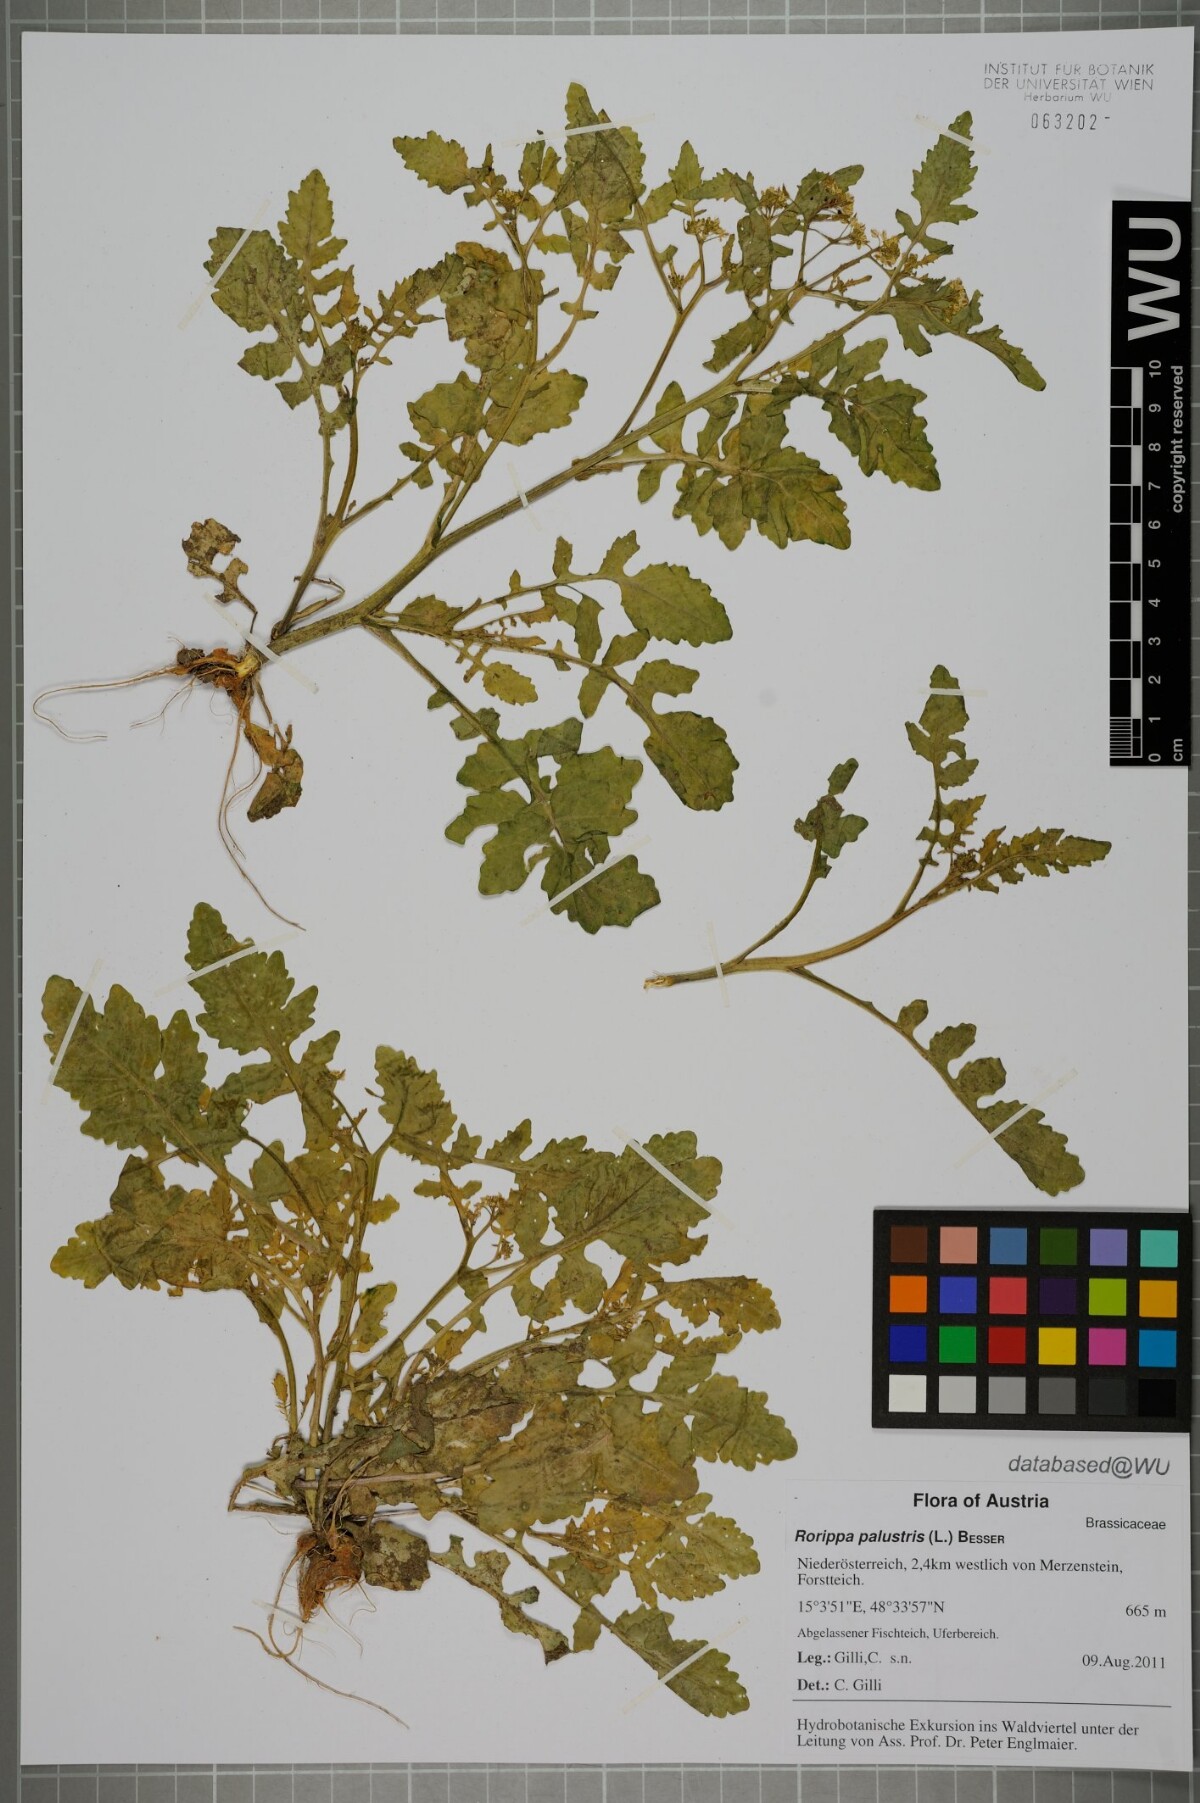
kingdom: Plantae
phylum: Tracheophyta
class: Magnoliopsida
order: Brassicales
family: Brassicaceae
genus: Rorippa
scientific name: Rorippa palustris
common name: Marsh yellow-cress
